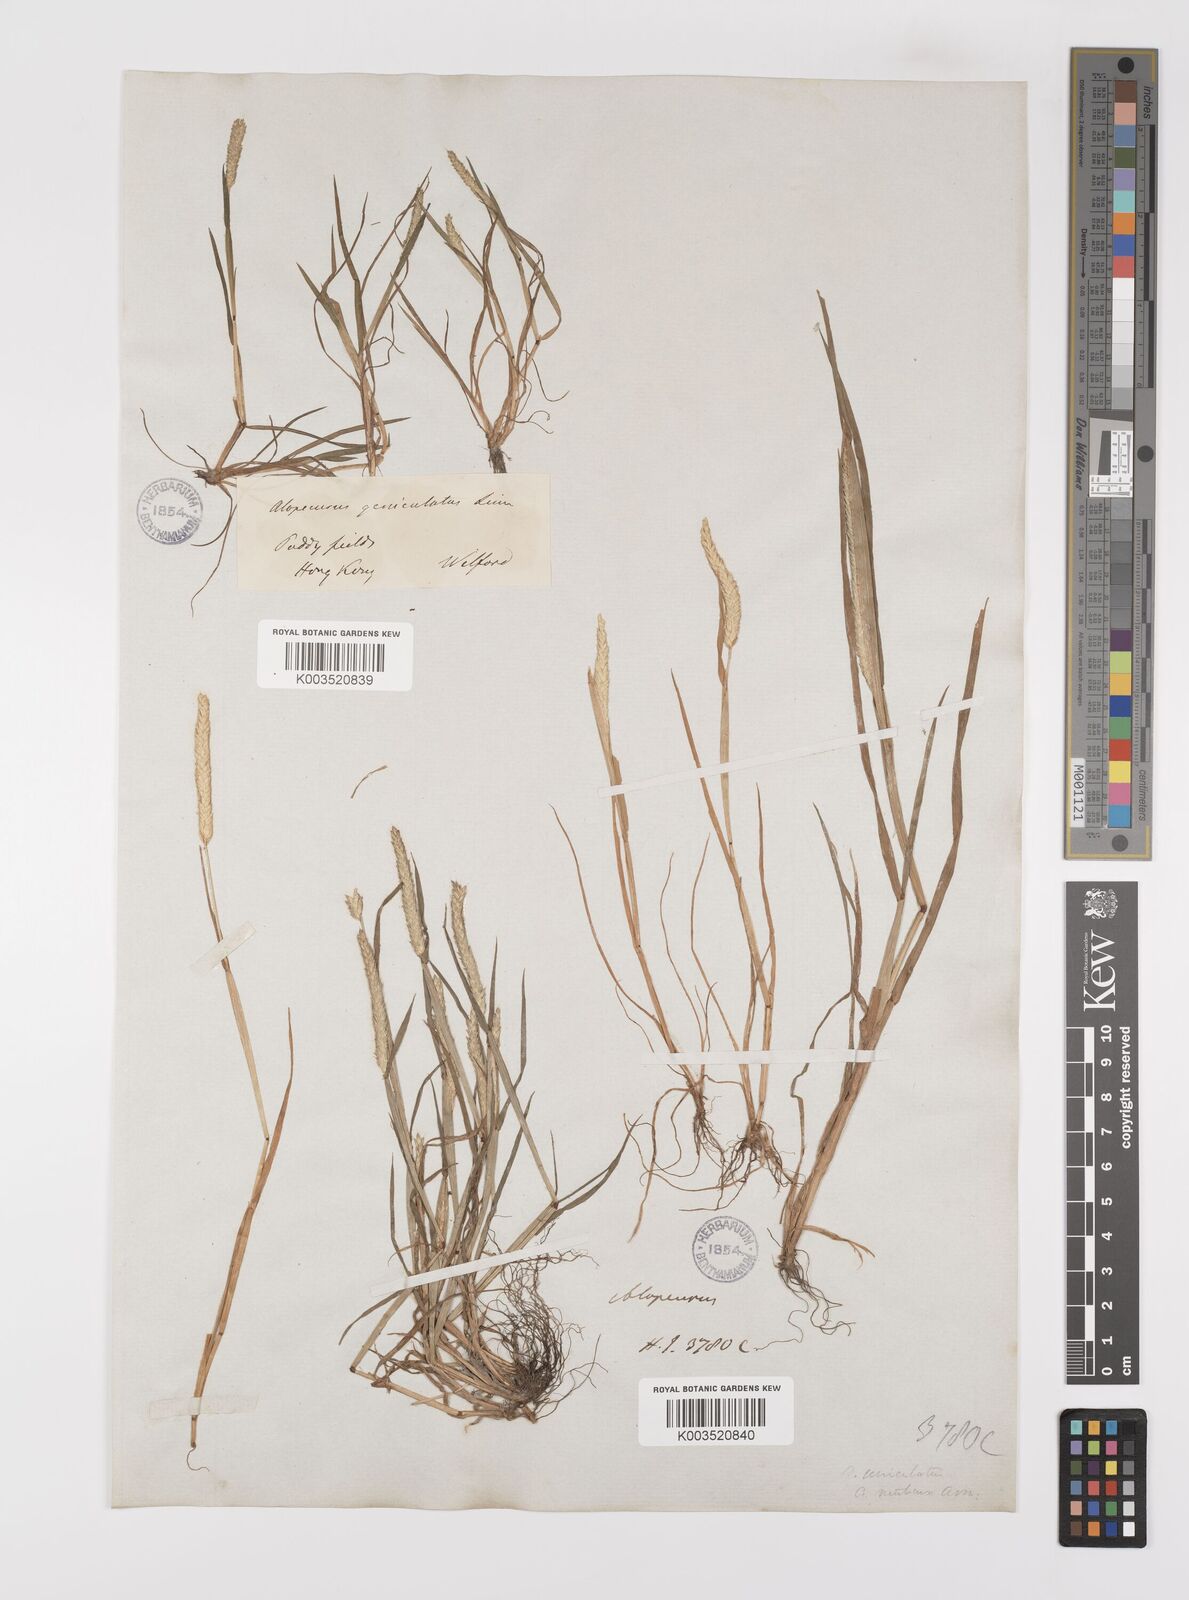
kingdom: Plantae
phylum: Tracheophyta
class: Liliopsida
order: Poales
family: Poaceae
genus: Alopecurus
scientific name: Alopecurus aequalis
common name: Orange foxtail
